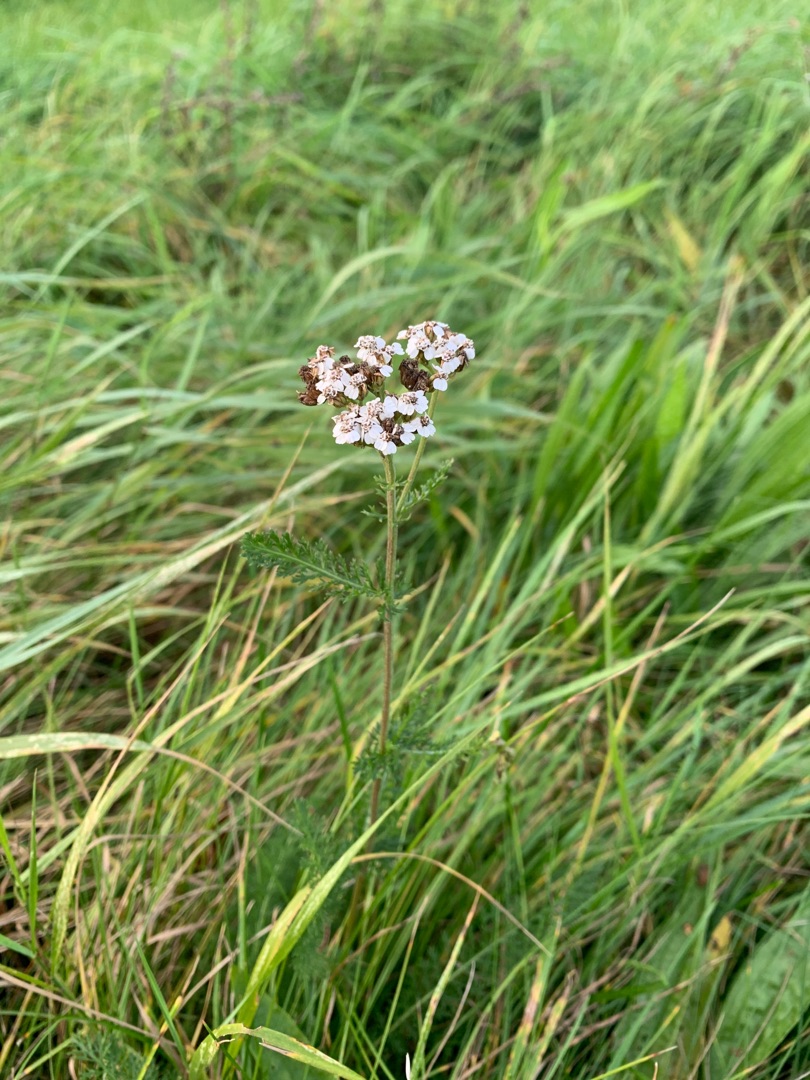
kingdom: Plantae
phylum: Tracheophyta
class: Magnoliopsida
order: Asterales
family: Asteraceae
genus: Achillea
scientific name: Achillea millefolium
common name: Almindelig røllike
